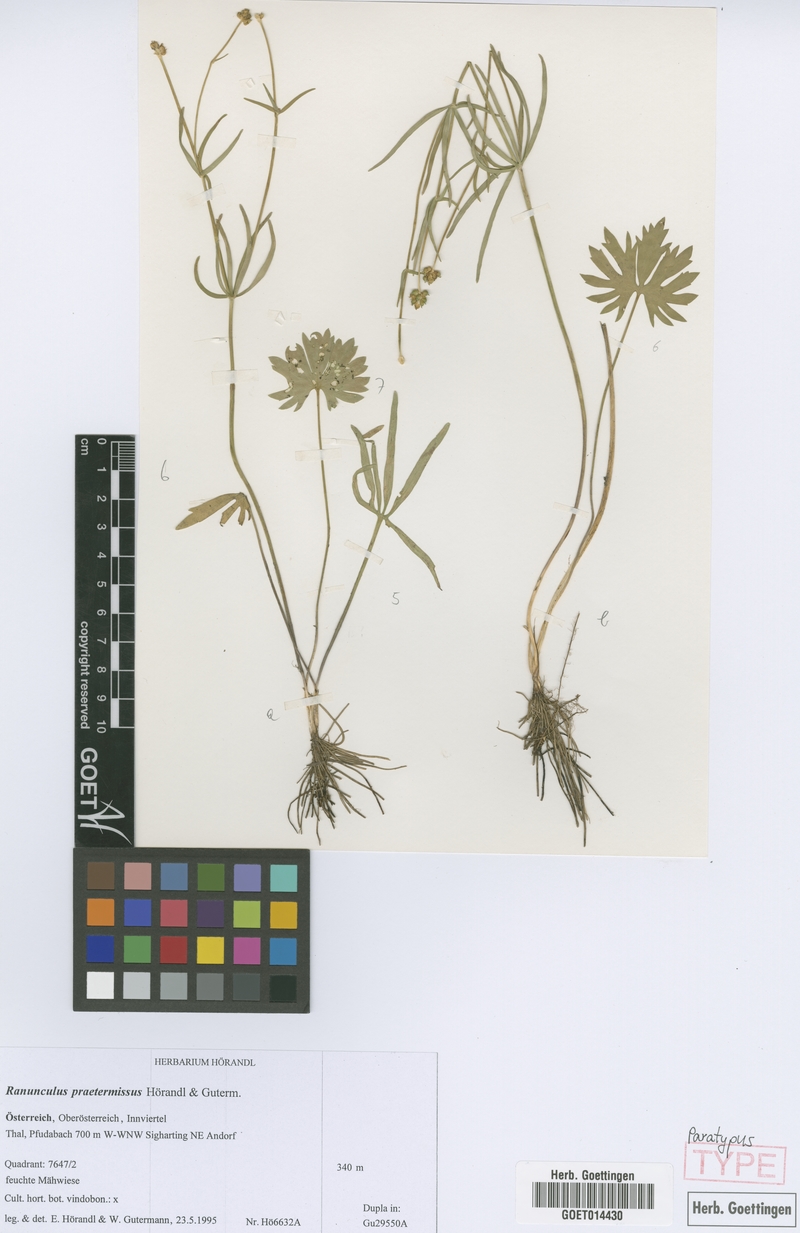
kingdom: Plantae
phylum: Tracheophyta
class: Magnoliopsida
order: Ranunculales
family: Ranunculaceae
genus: Ranunculus
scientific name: Ranunculus praetermissus
